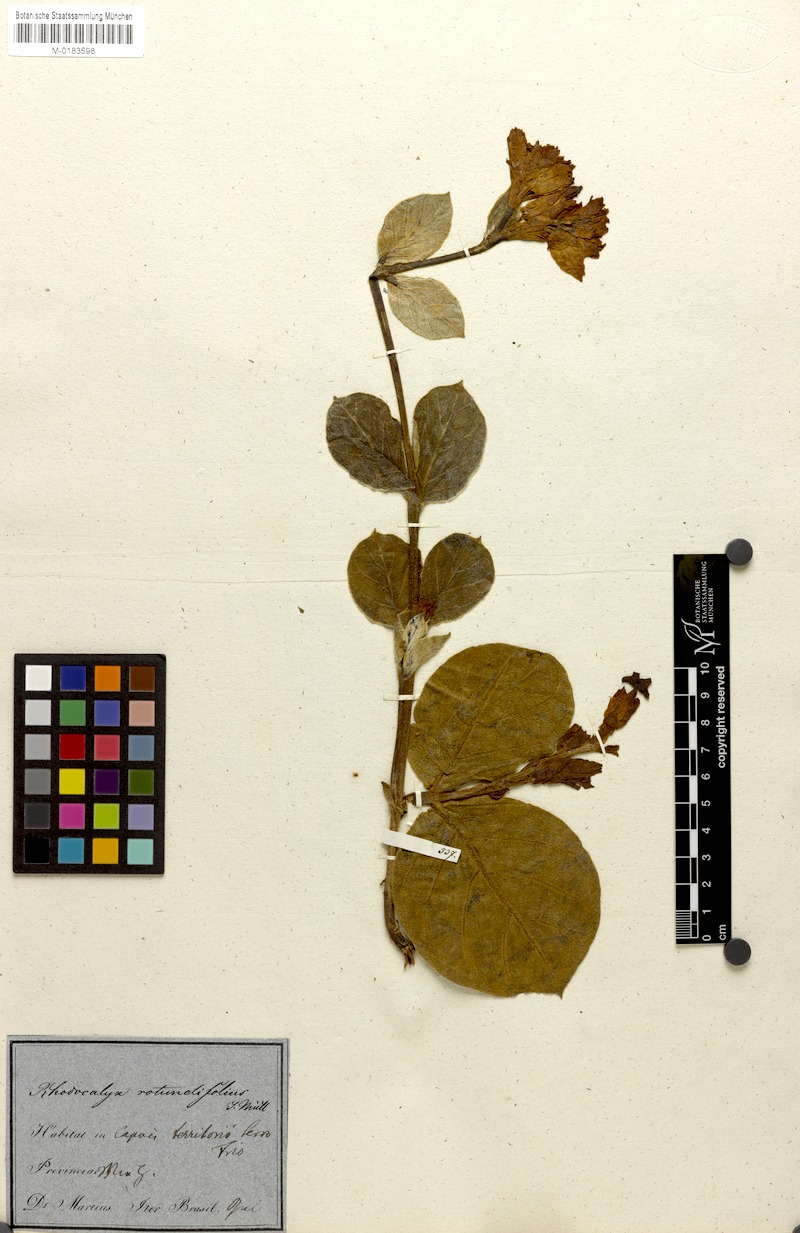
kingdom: Plantae
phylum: Tracheophyta
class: Magnoliopsida
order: Gentianales
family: Apocynaceae
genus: Prestonia
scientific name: Prestonia erecta
